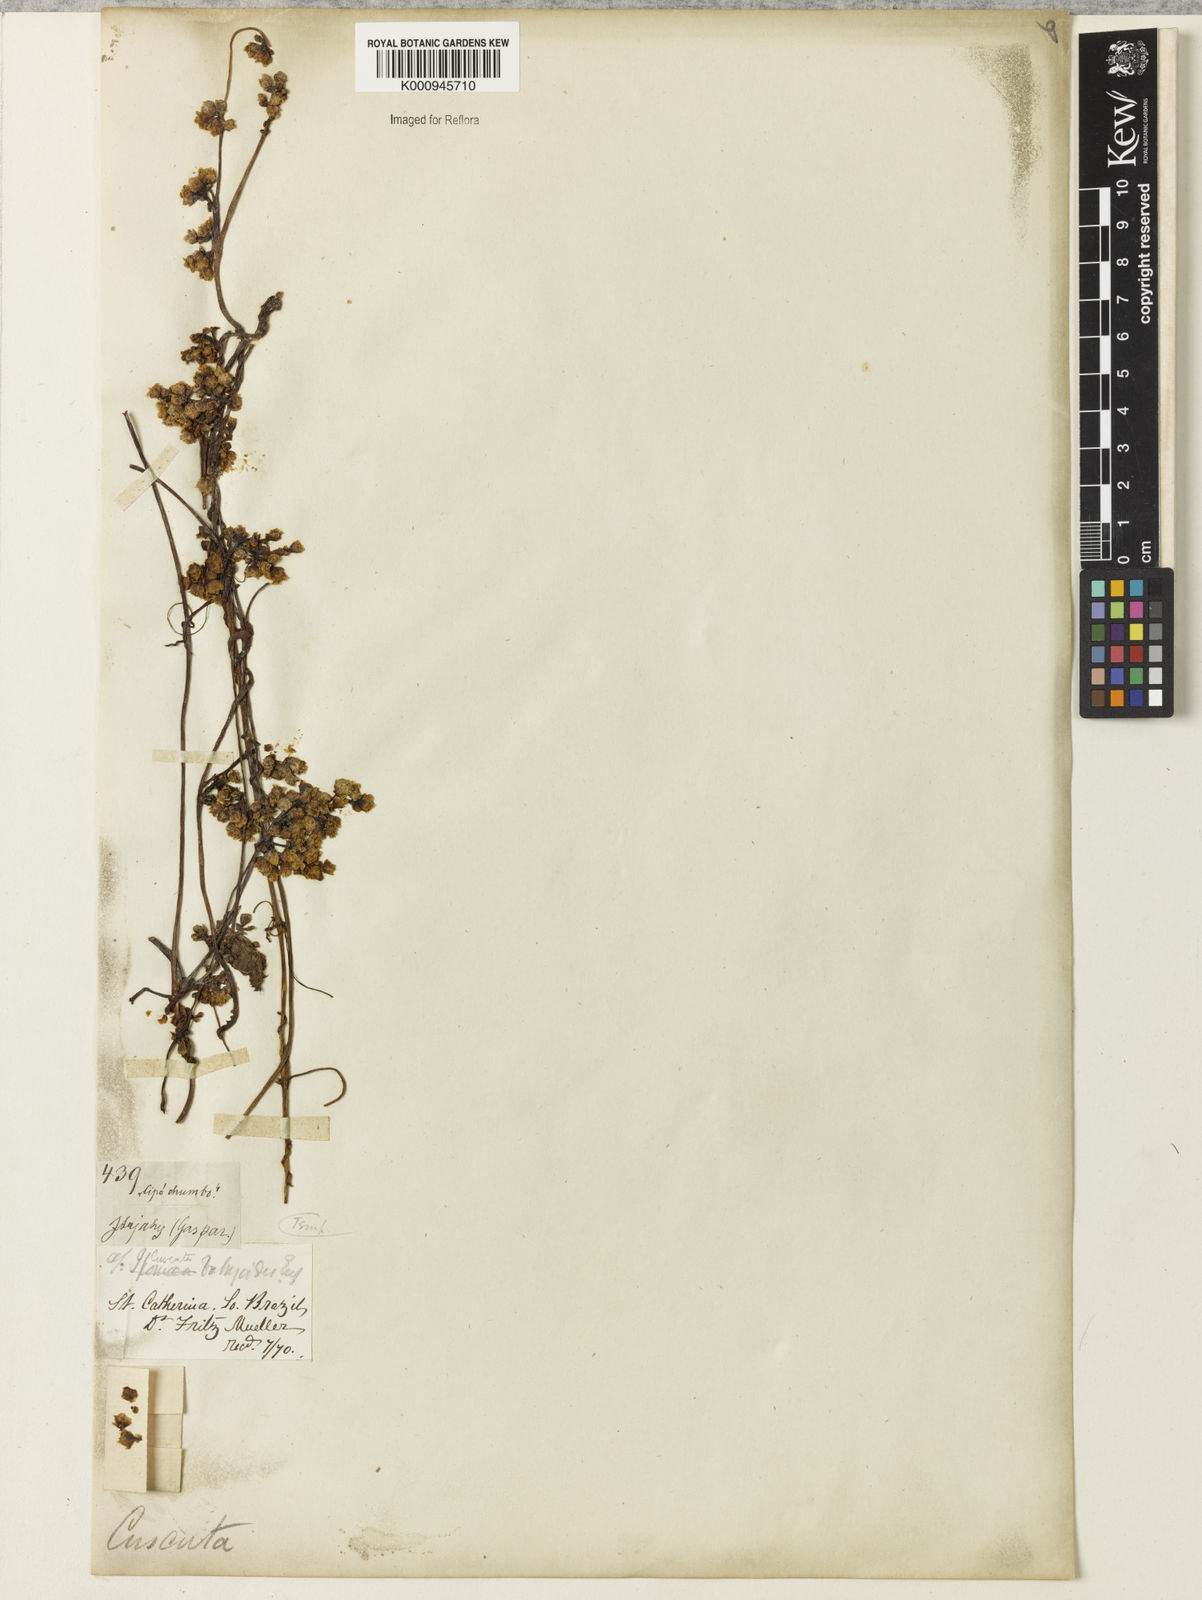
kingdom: Plantae
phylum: Tracheophyta
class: Magnoliopsida
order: Solanales
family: Convolvulaceae
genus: Cuscuta
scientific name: Cuscuta odorata
